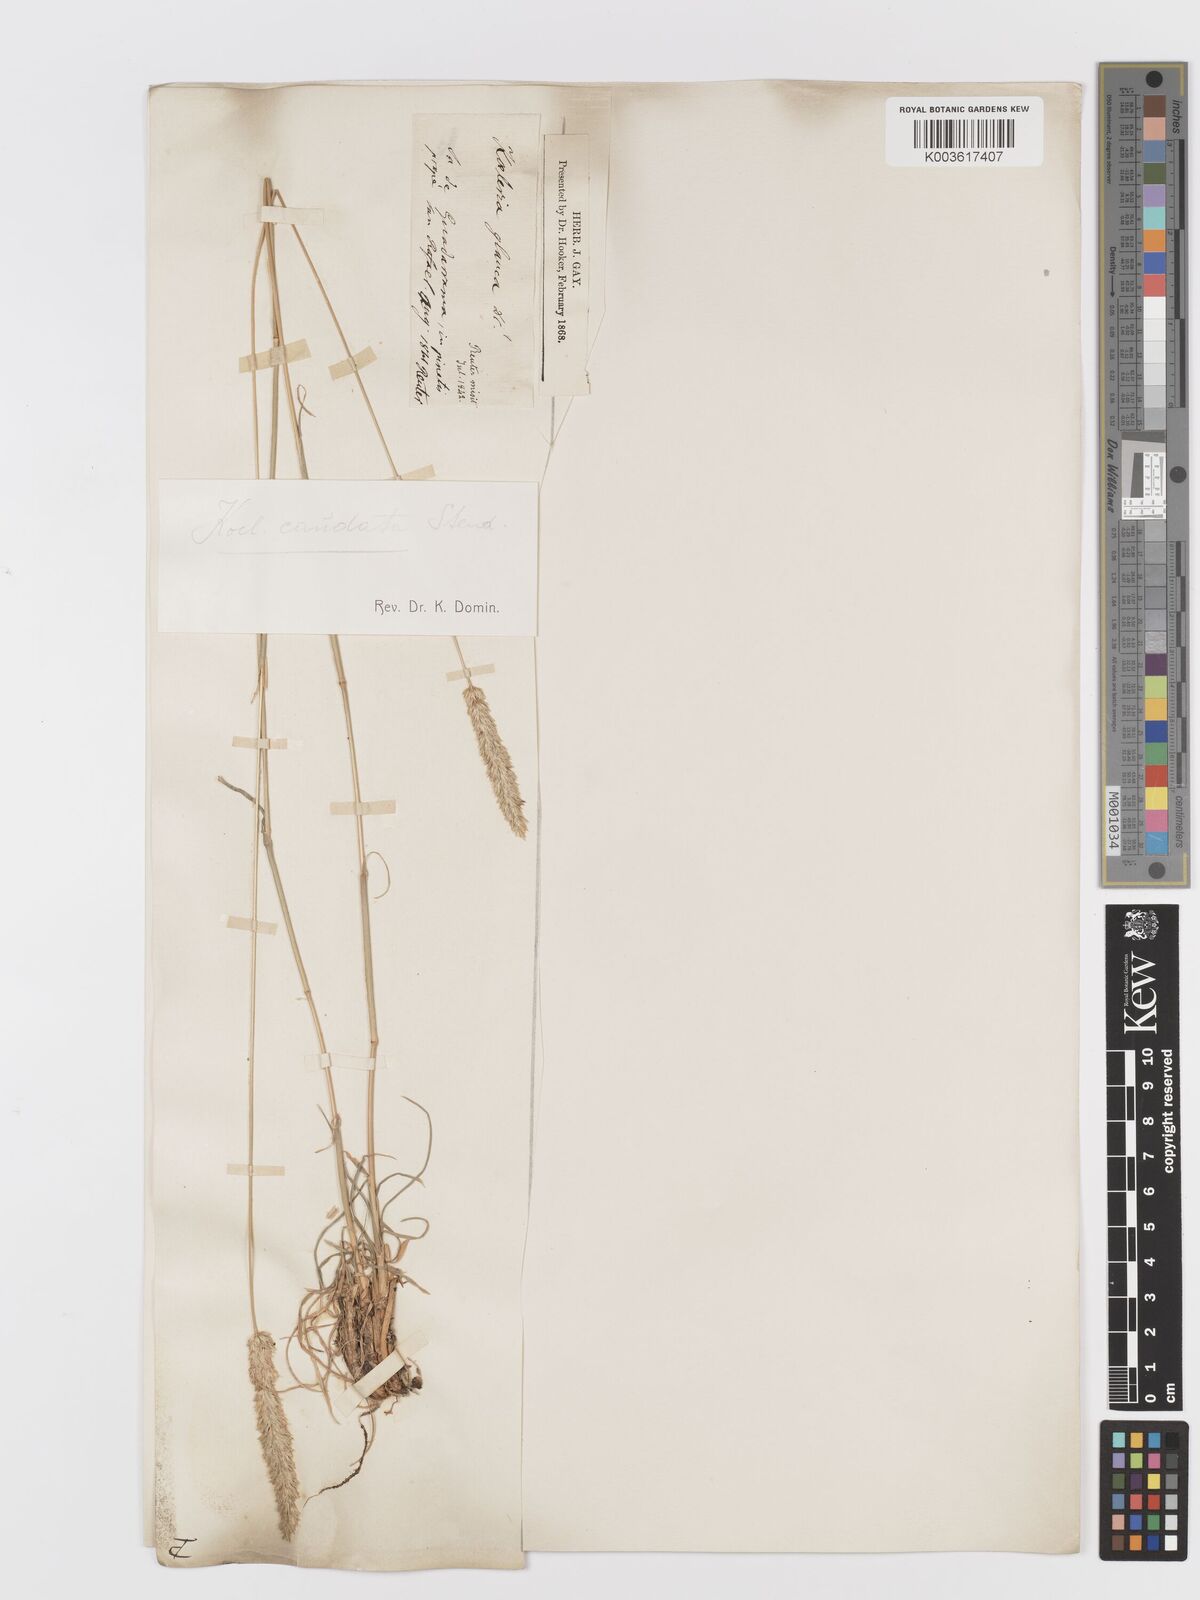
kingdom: Plantae
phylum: Tracheophyta
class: Liliopsida
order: Poales
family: Poaceae
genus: Koeleria
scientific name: Koeleria crassipes
